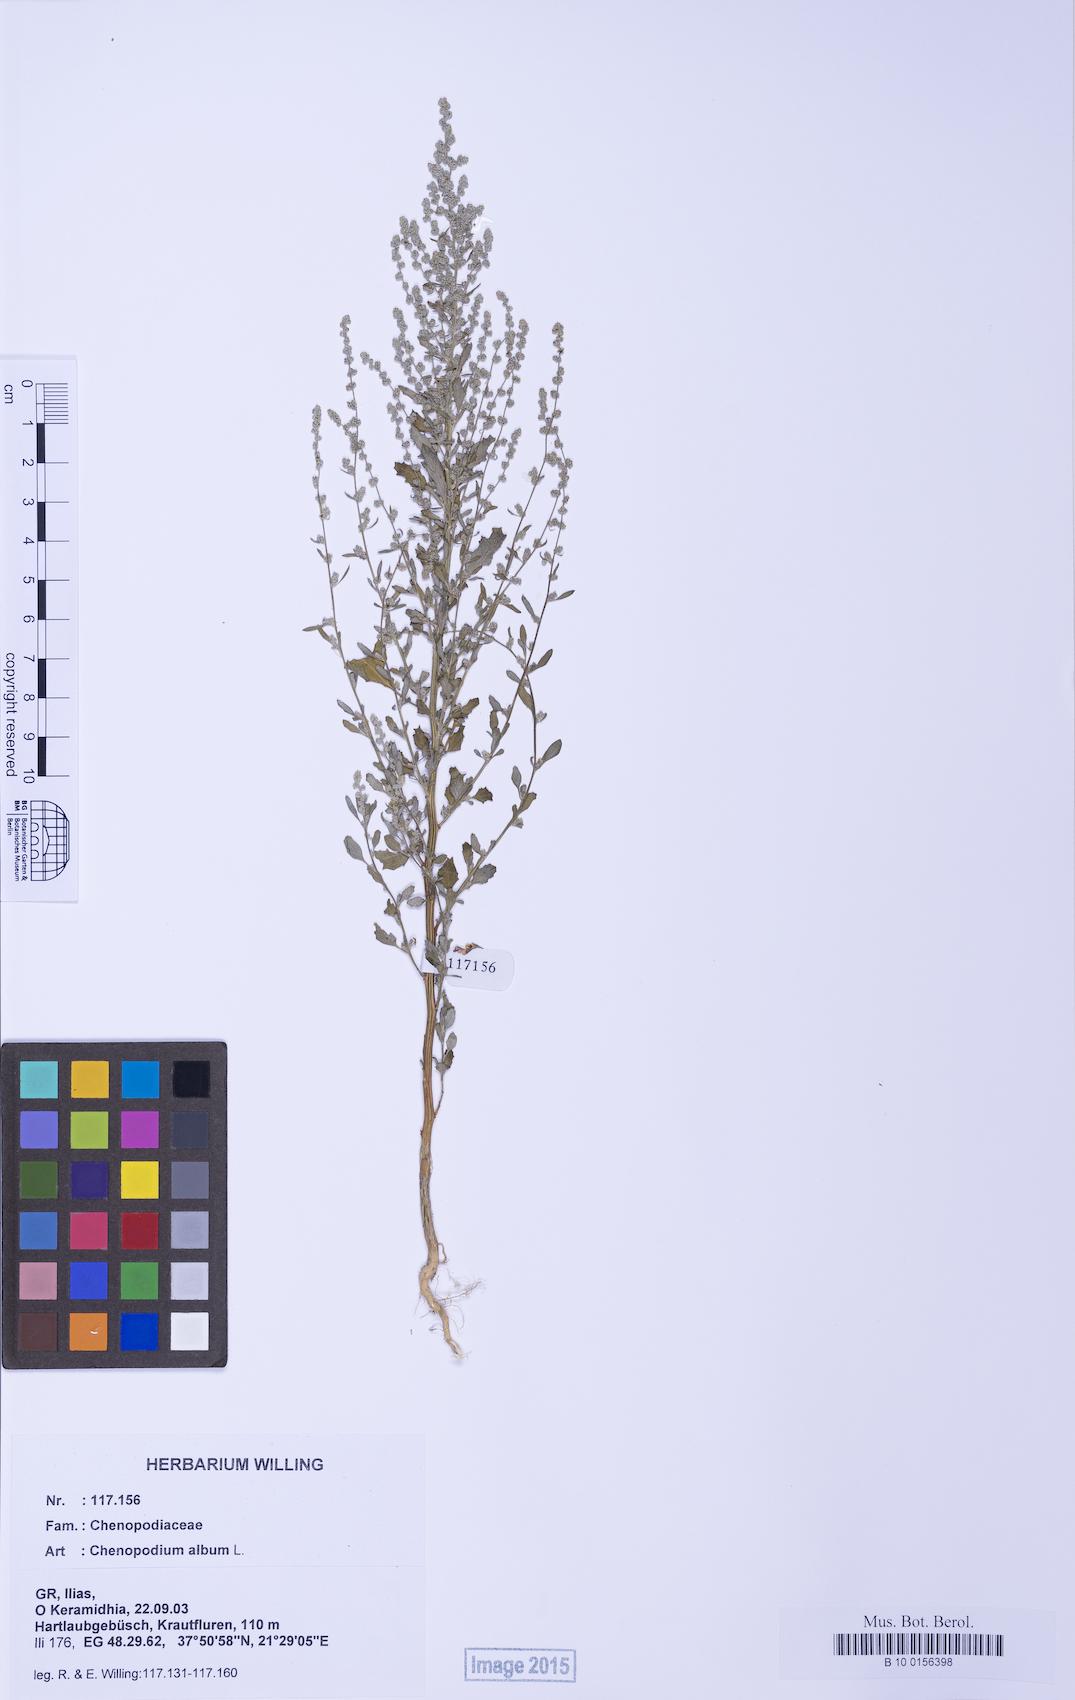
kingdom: Plantae
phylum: Tracheophyta
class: Magnoliopsida
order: Caryophyllales
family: Amaranthaceae
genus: Chenopodium
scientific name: Chenopodium album
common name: Fat-hen
